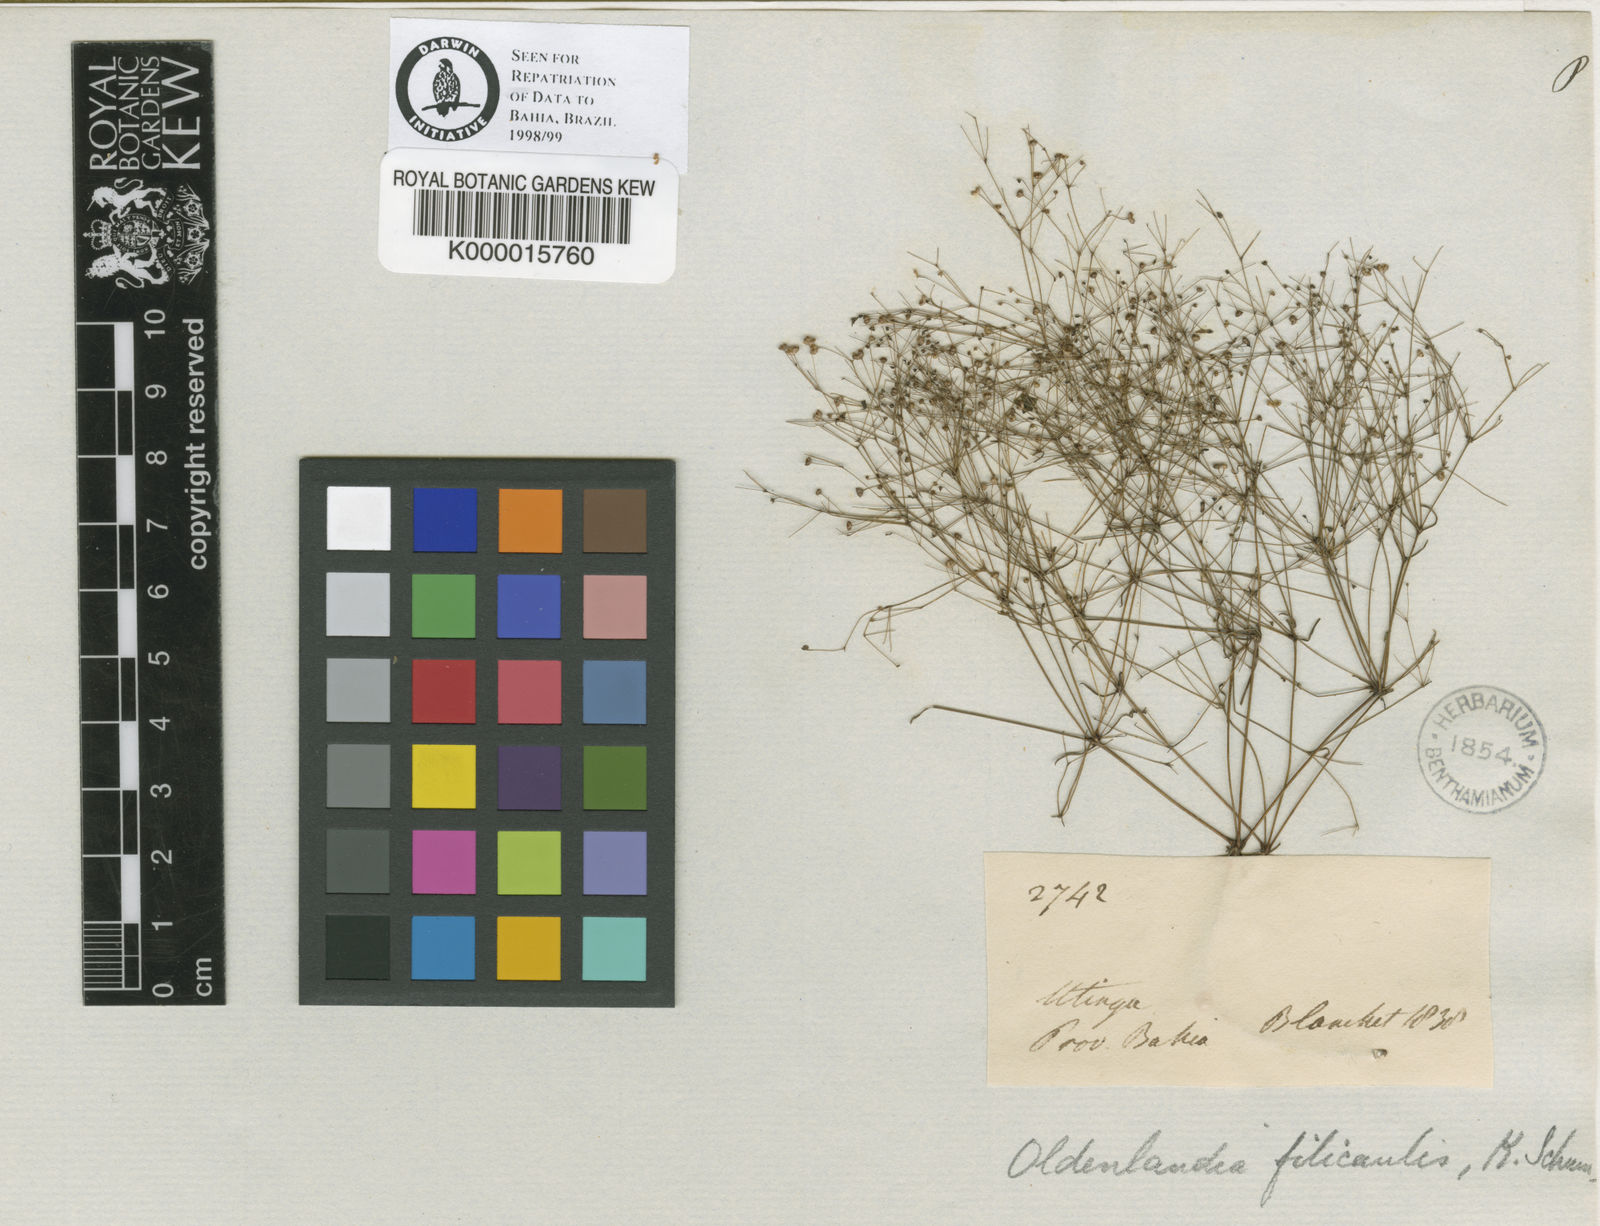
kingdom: Plantae
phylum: Tracheophyta
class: Magnoliopsida
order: Gentianales
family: Rubiaceae
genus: Oldenlandia
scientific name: Oldenlandia filicaulis
